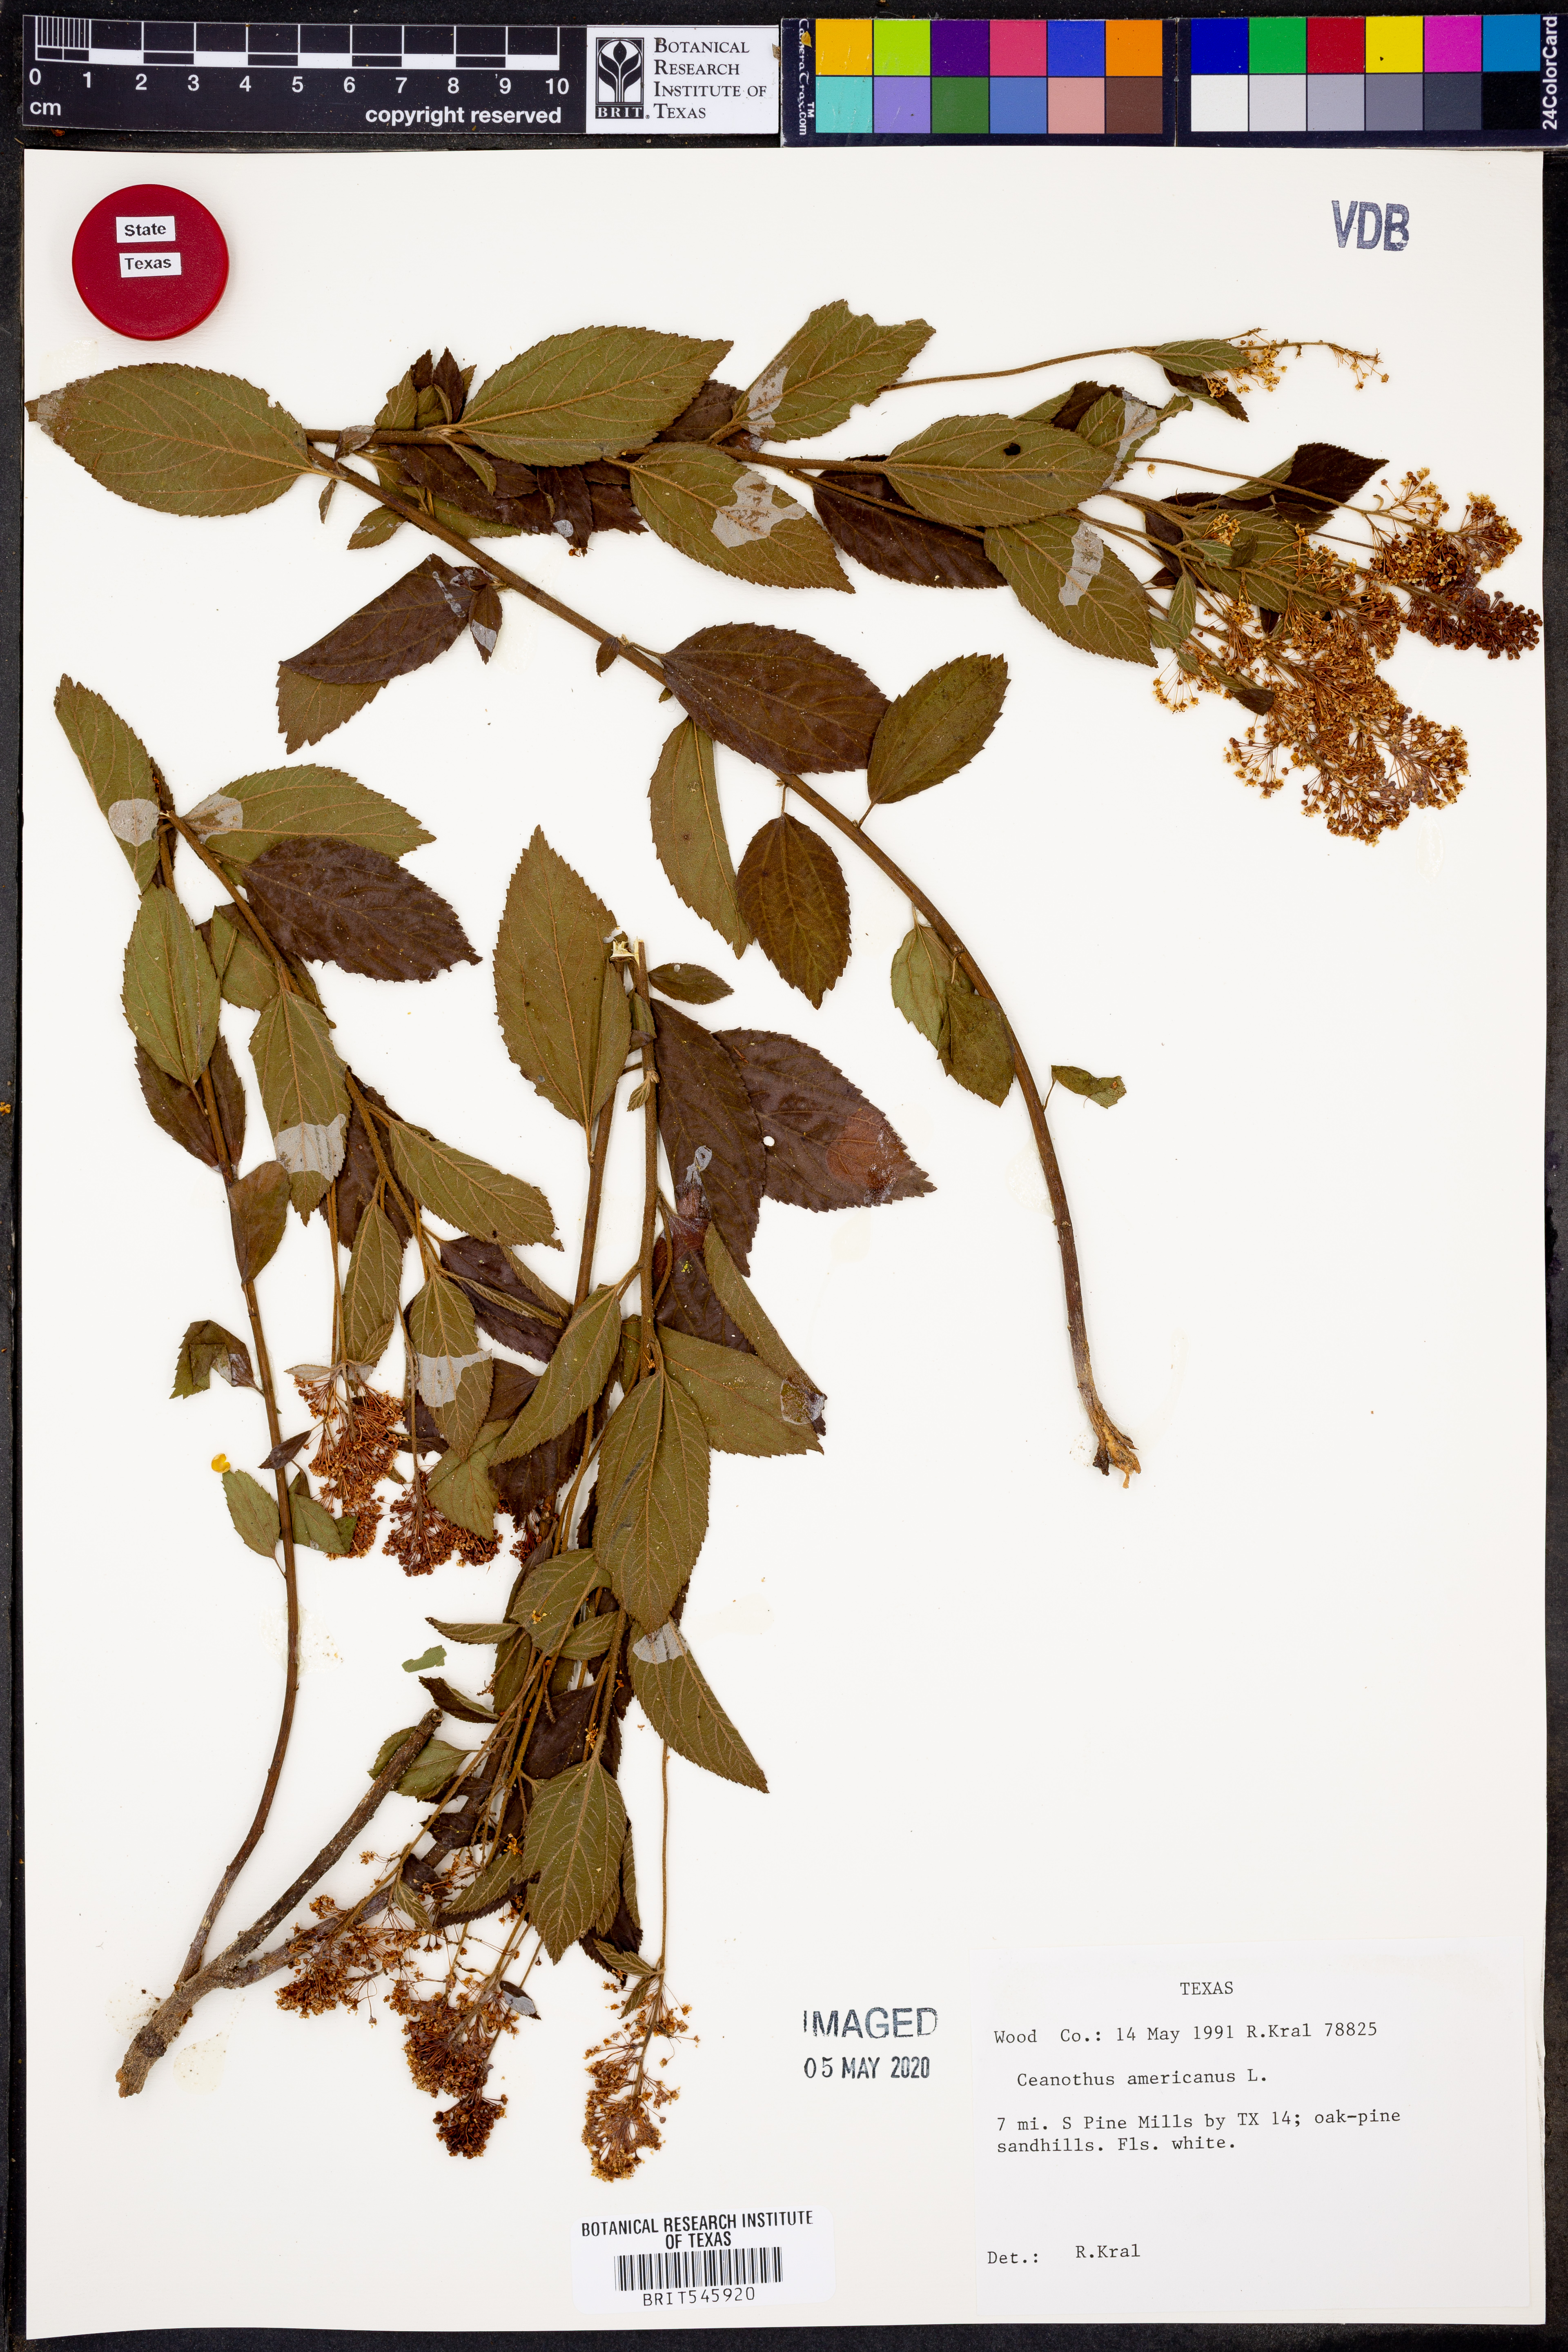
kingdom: Plantae
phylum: Tracheophyta
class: Magnoliopsida
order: Rosales
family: Rhamnaceae
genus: Ceanothus
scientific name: Ceanothus americanus
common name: Redroot
